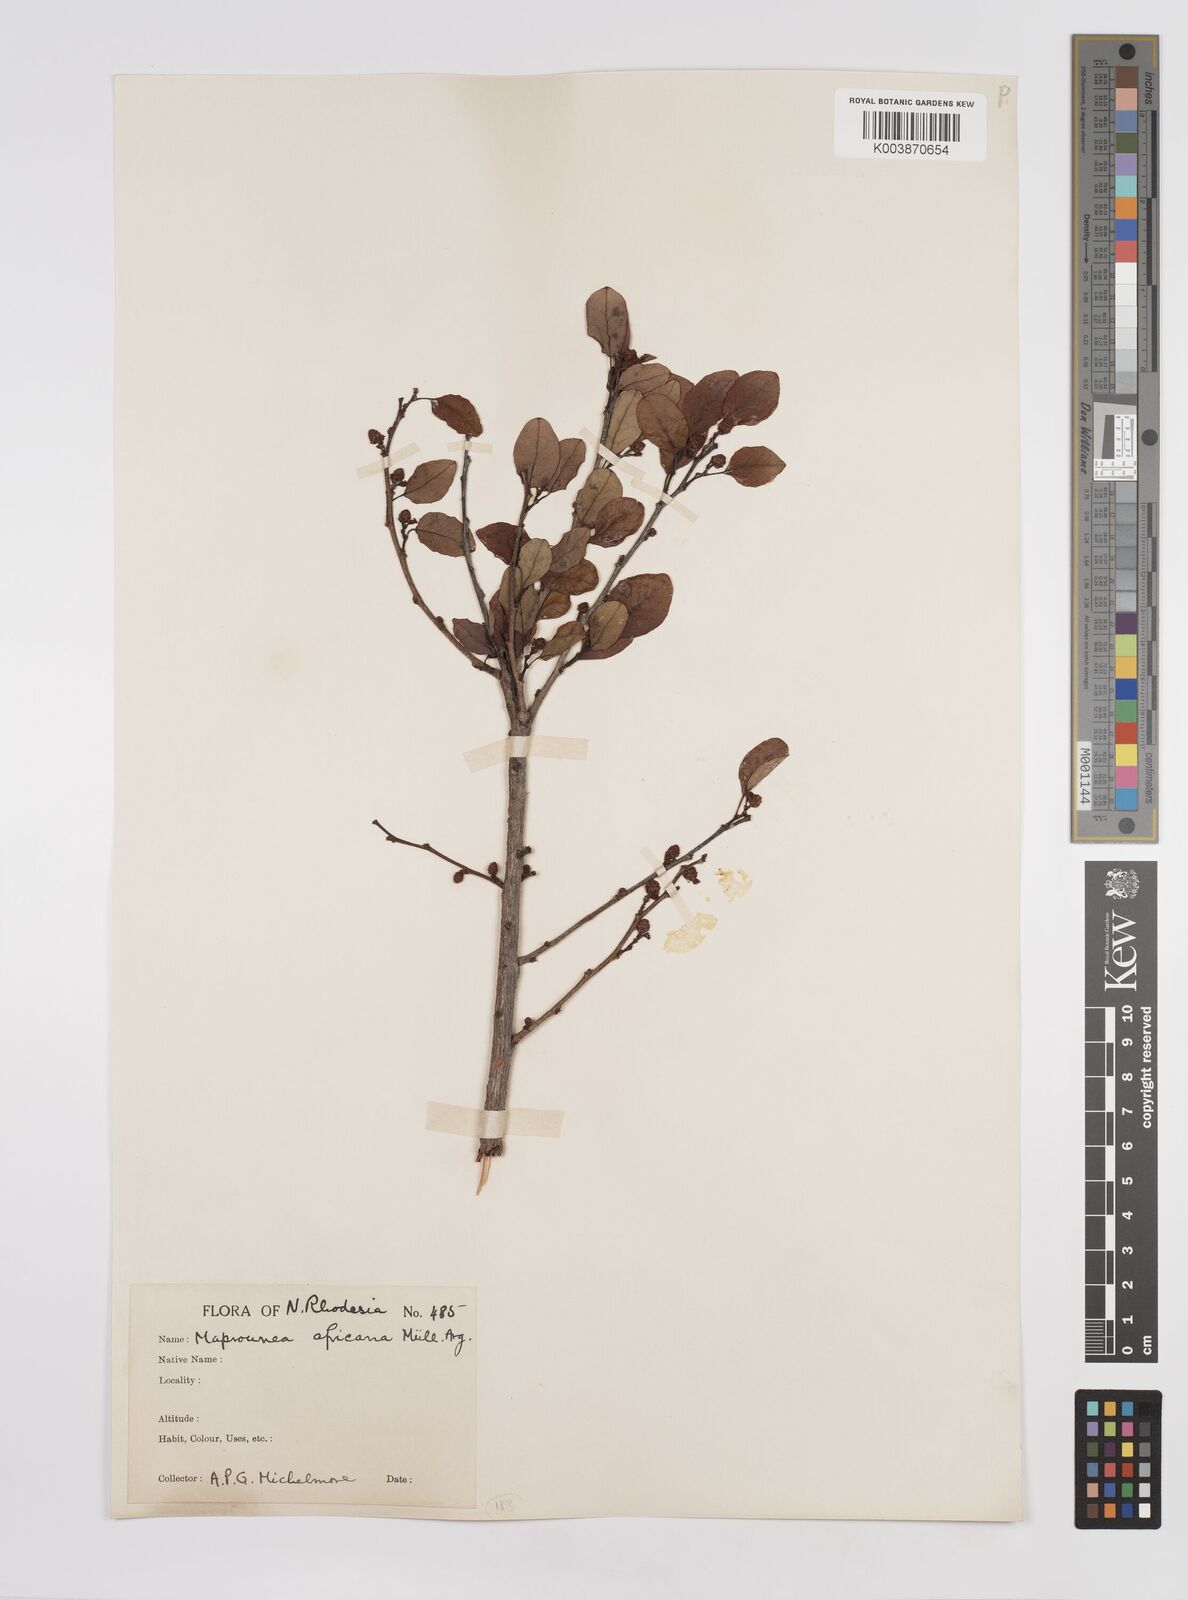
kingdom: Plantae
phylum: Tracheophyta
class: Magnoliopsida
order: Malpighiales
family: Euphorbiaceae
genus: Maprounea
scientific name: Maprounea africana
